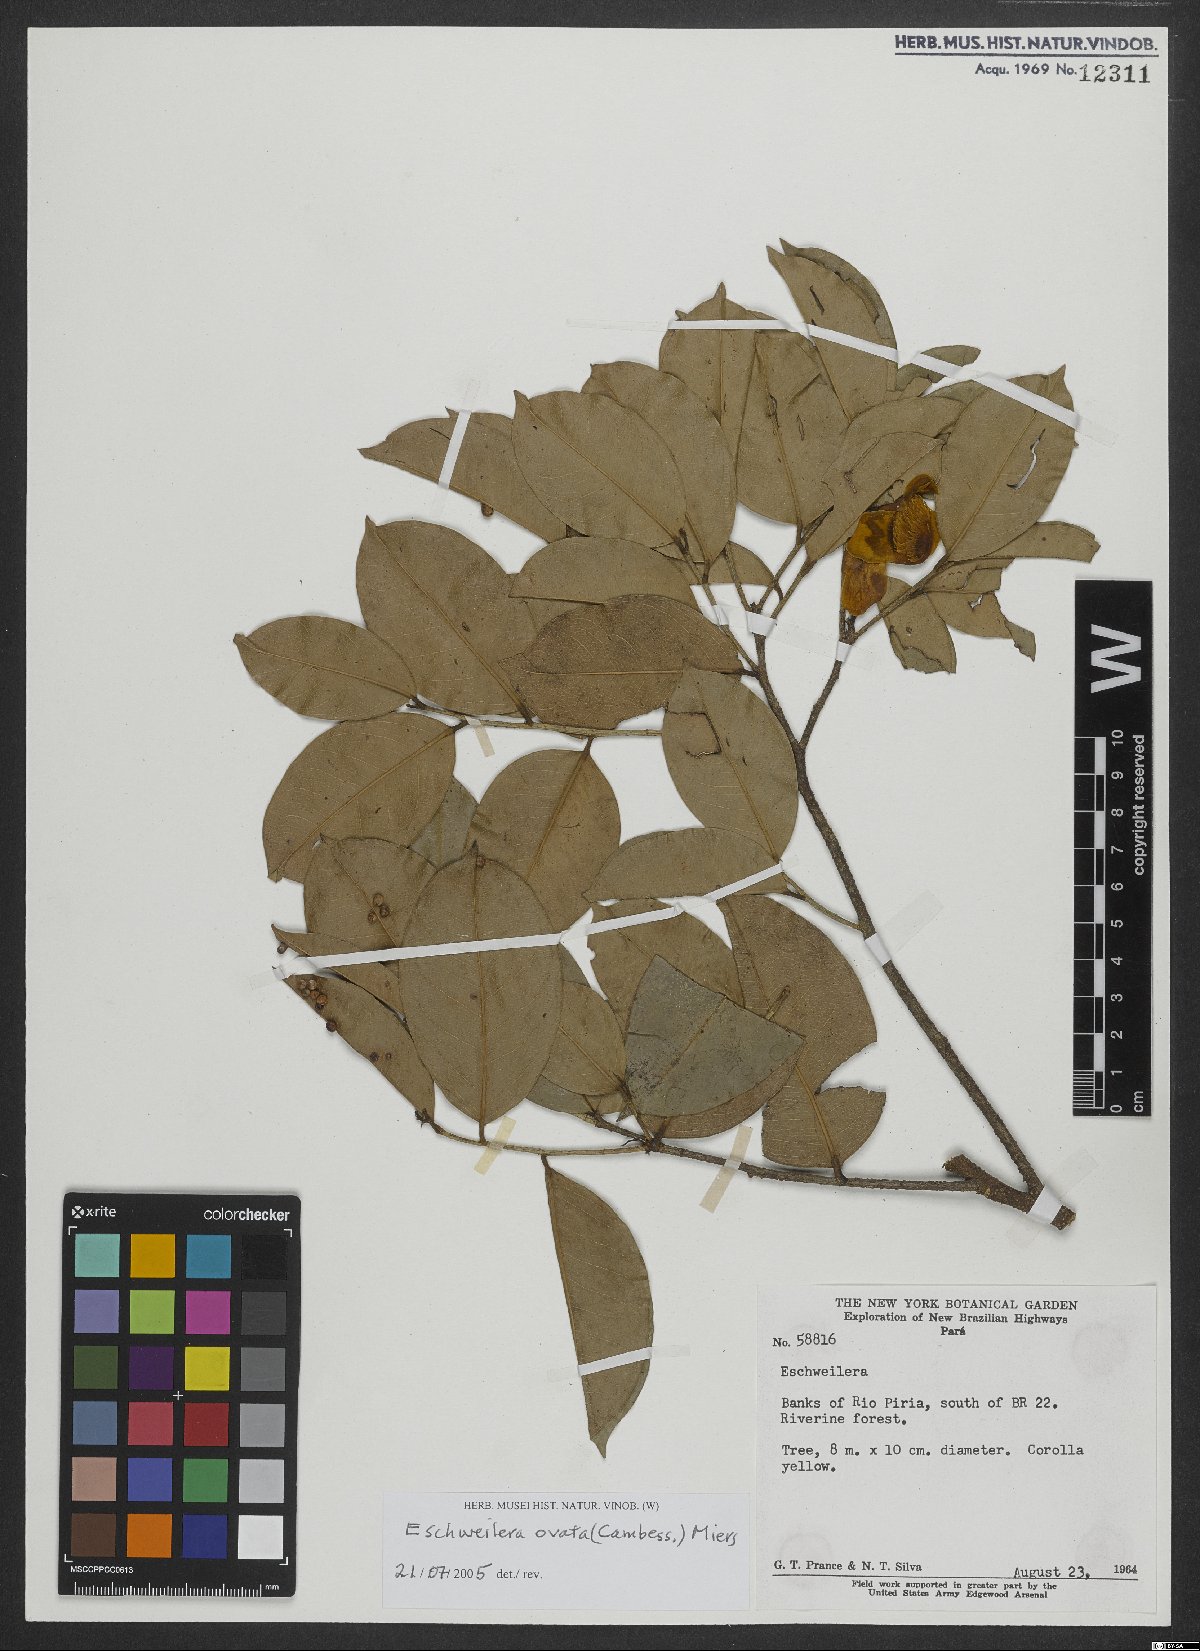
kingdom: Plantae
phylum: Tracheophyta
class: Magnoliopsida
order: Ericales
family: Lecythidaceae
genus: Eschweilera
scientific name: Eschweilera ovata
